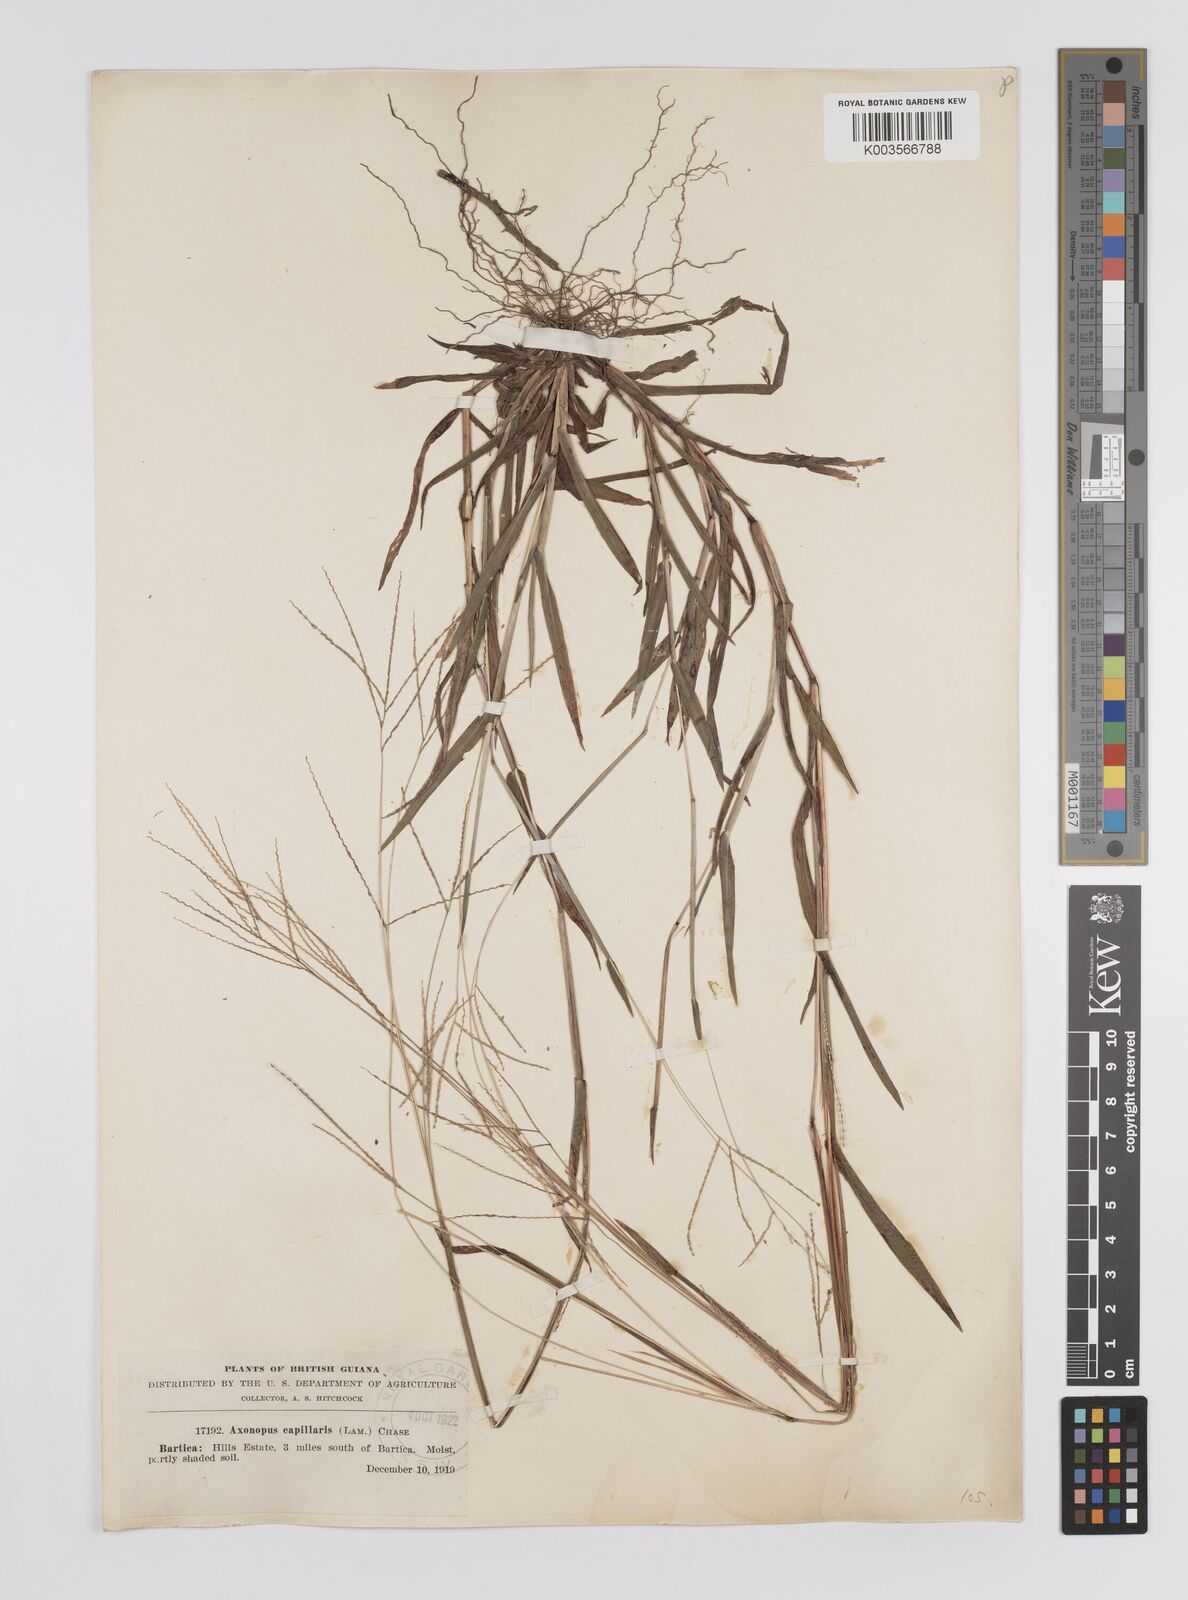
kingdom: Plantae
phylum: Tracheophyta
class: Liliopsida
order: Poales
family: Poaceae
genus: Axonopus
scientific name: Axonopus capillaris
